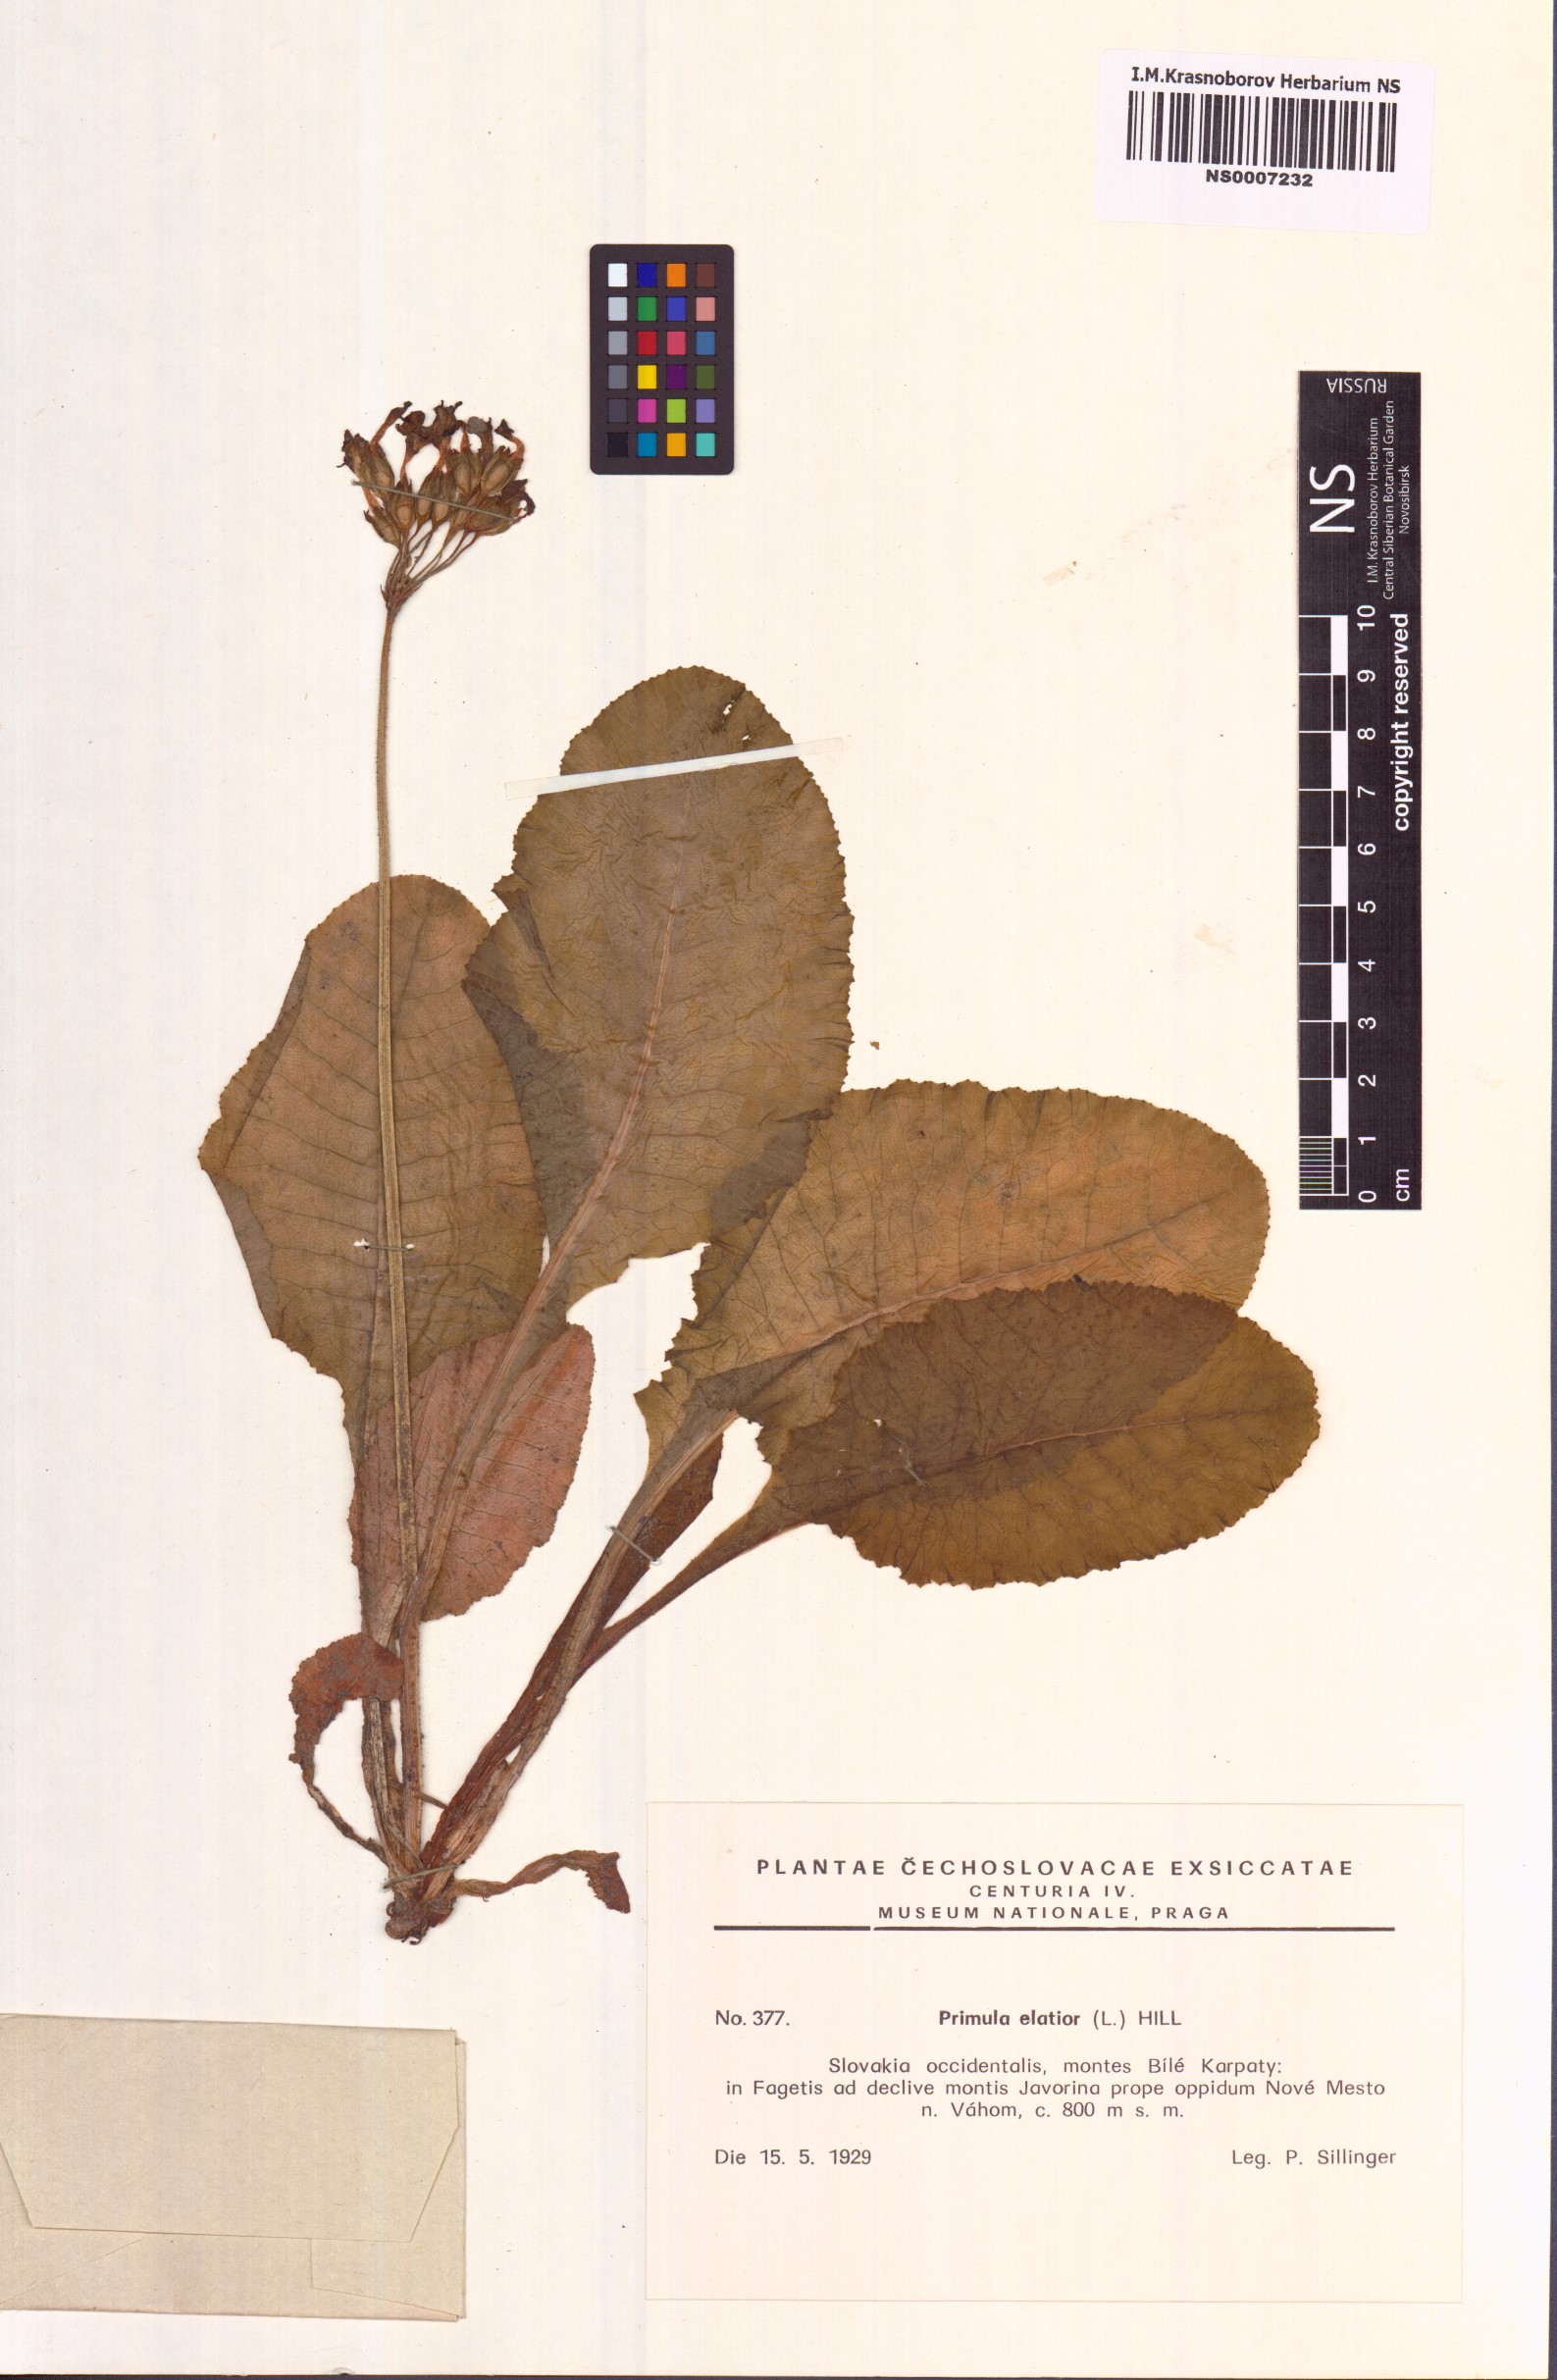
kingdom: Plantae
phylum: Tracheophyta
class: Magnoliopsida
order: Ericales
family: Primulaceae
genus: Primula
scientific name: Primula elatior
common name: Oxlip
